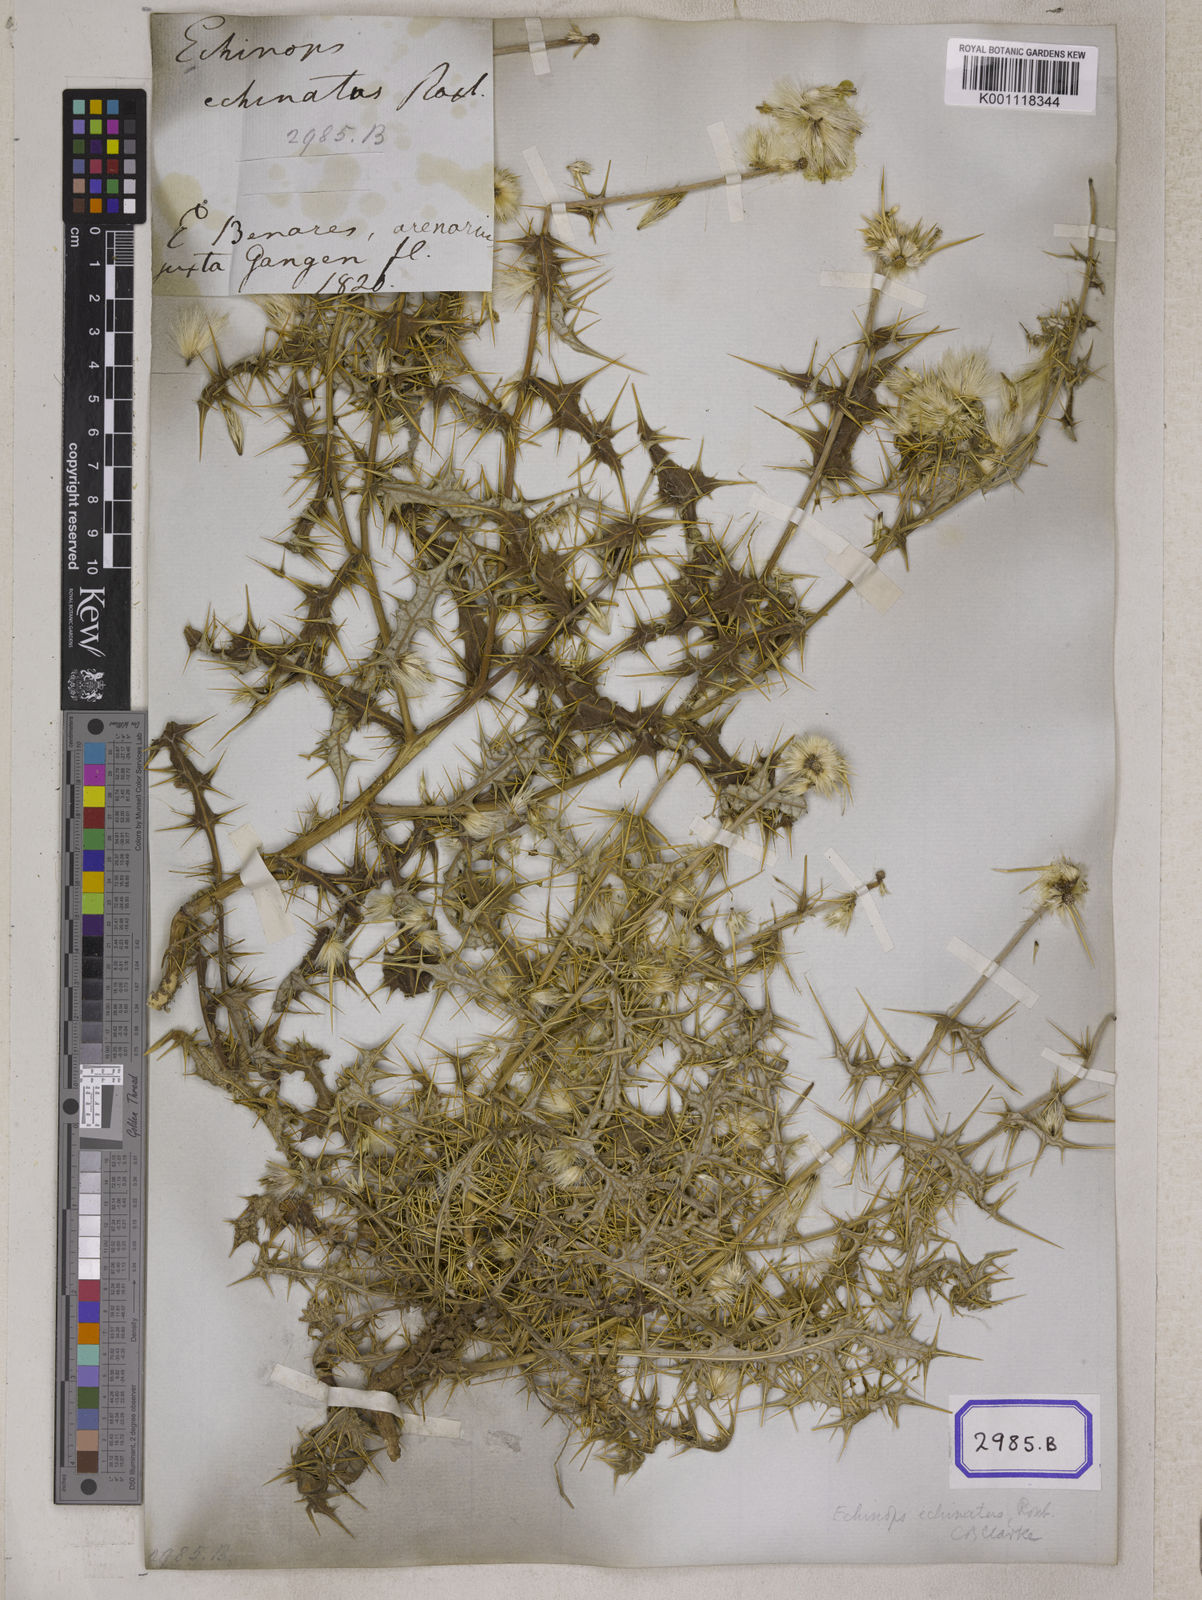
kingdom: Plantae
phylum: Tracheophyta
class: Magnoliopsida
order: Asterales
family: Asteraceae
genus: Echinops
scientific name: Echinops echinatus
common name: Indian globe thistle
